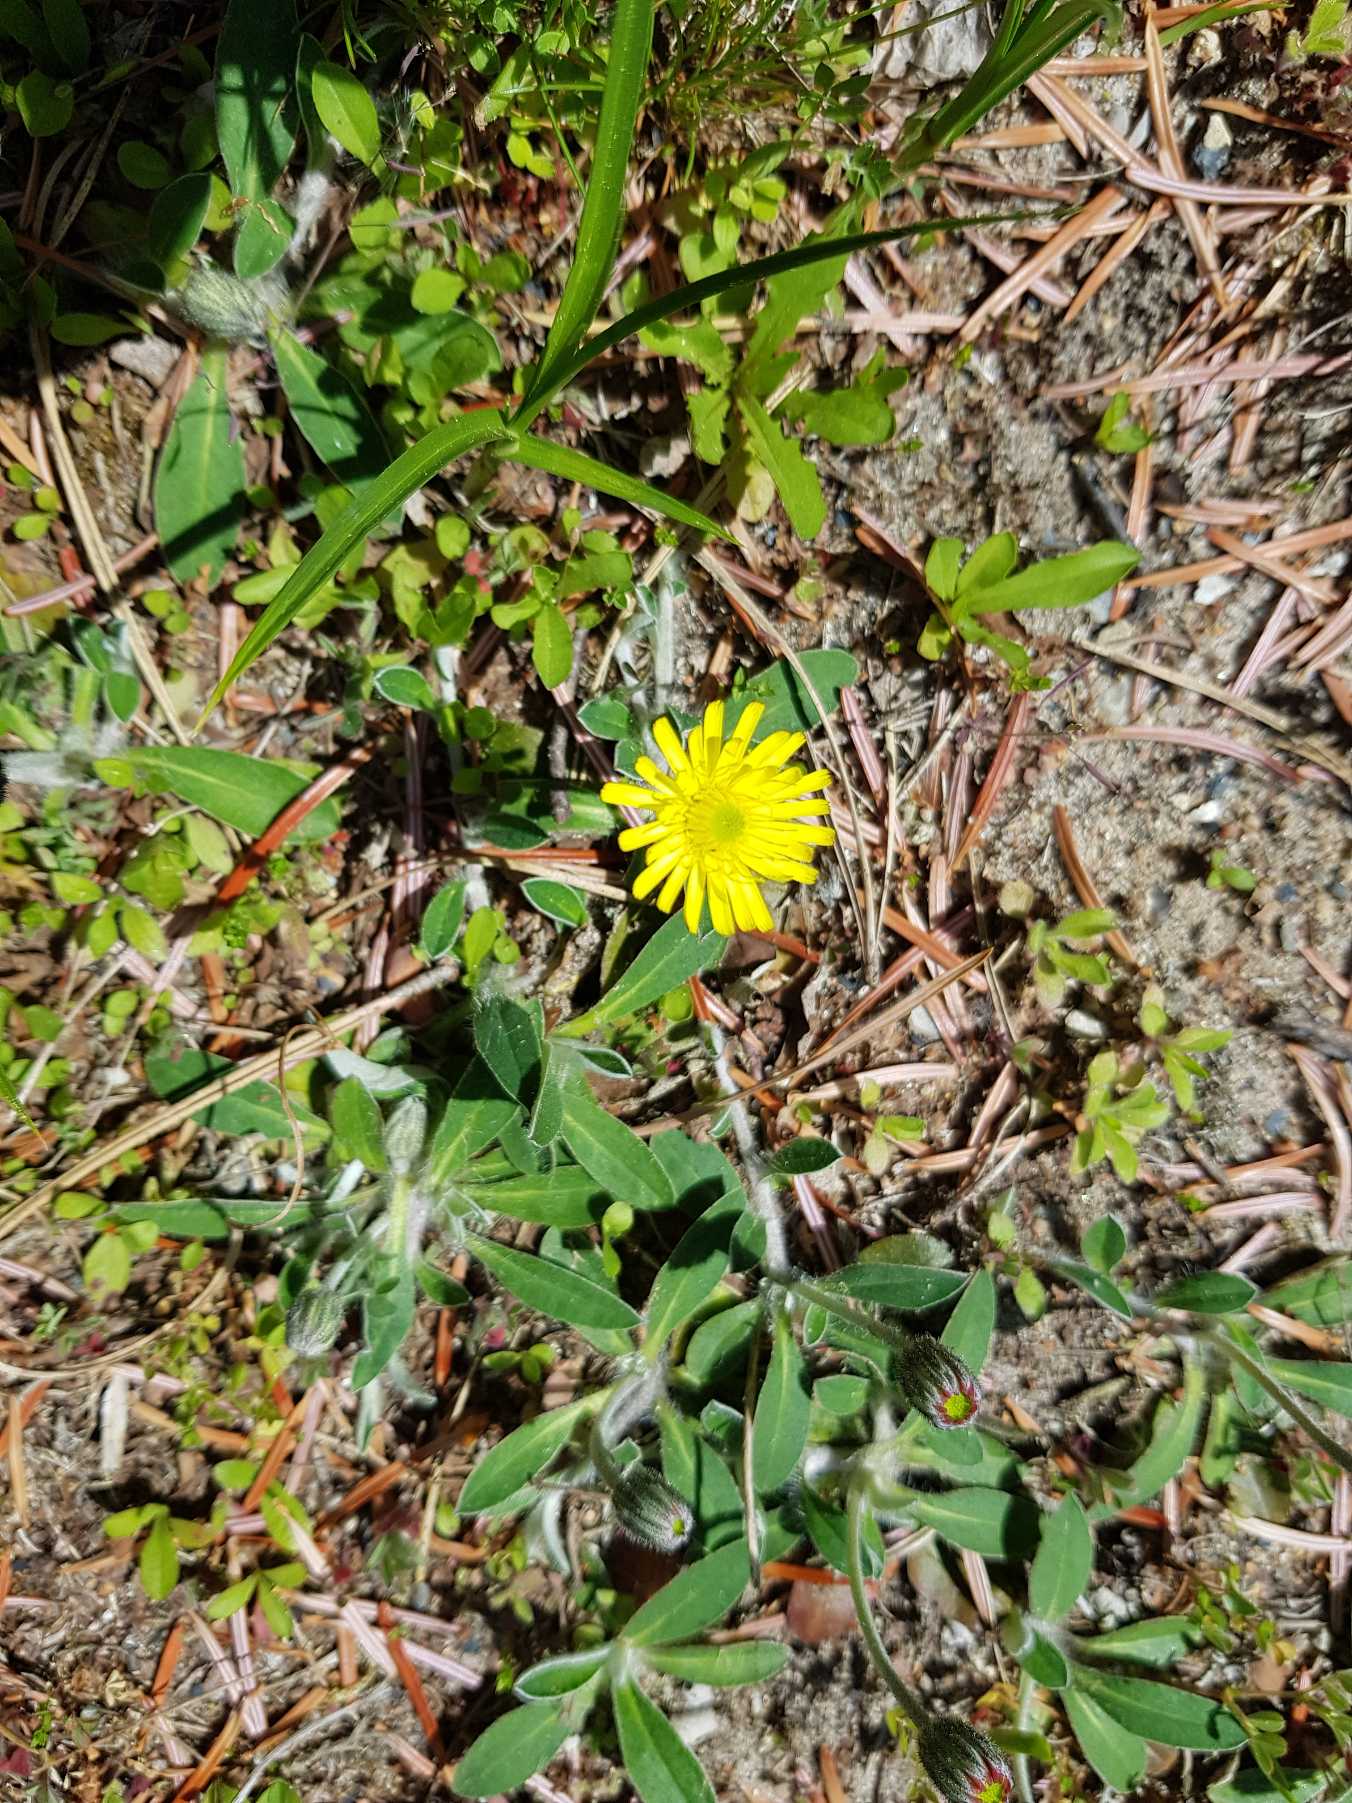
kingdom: Plantae
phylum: Tracheophyta
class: Magnoliopsida
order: Asterales
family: Asteraceae
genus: Pilosella
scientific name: Pilosella officinarum
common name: Håret høgeurt
